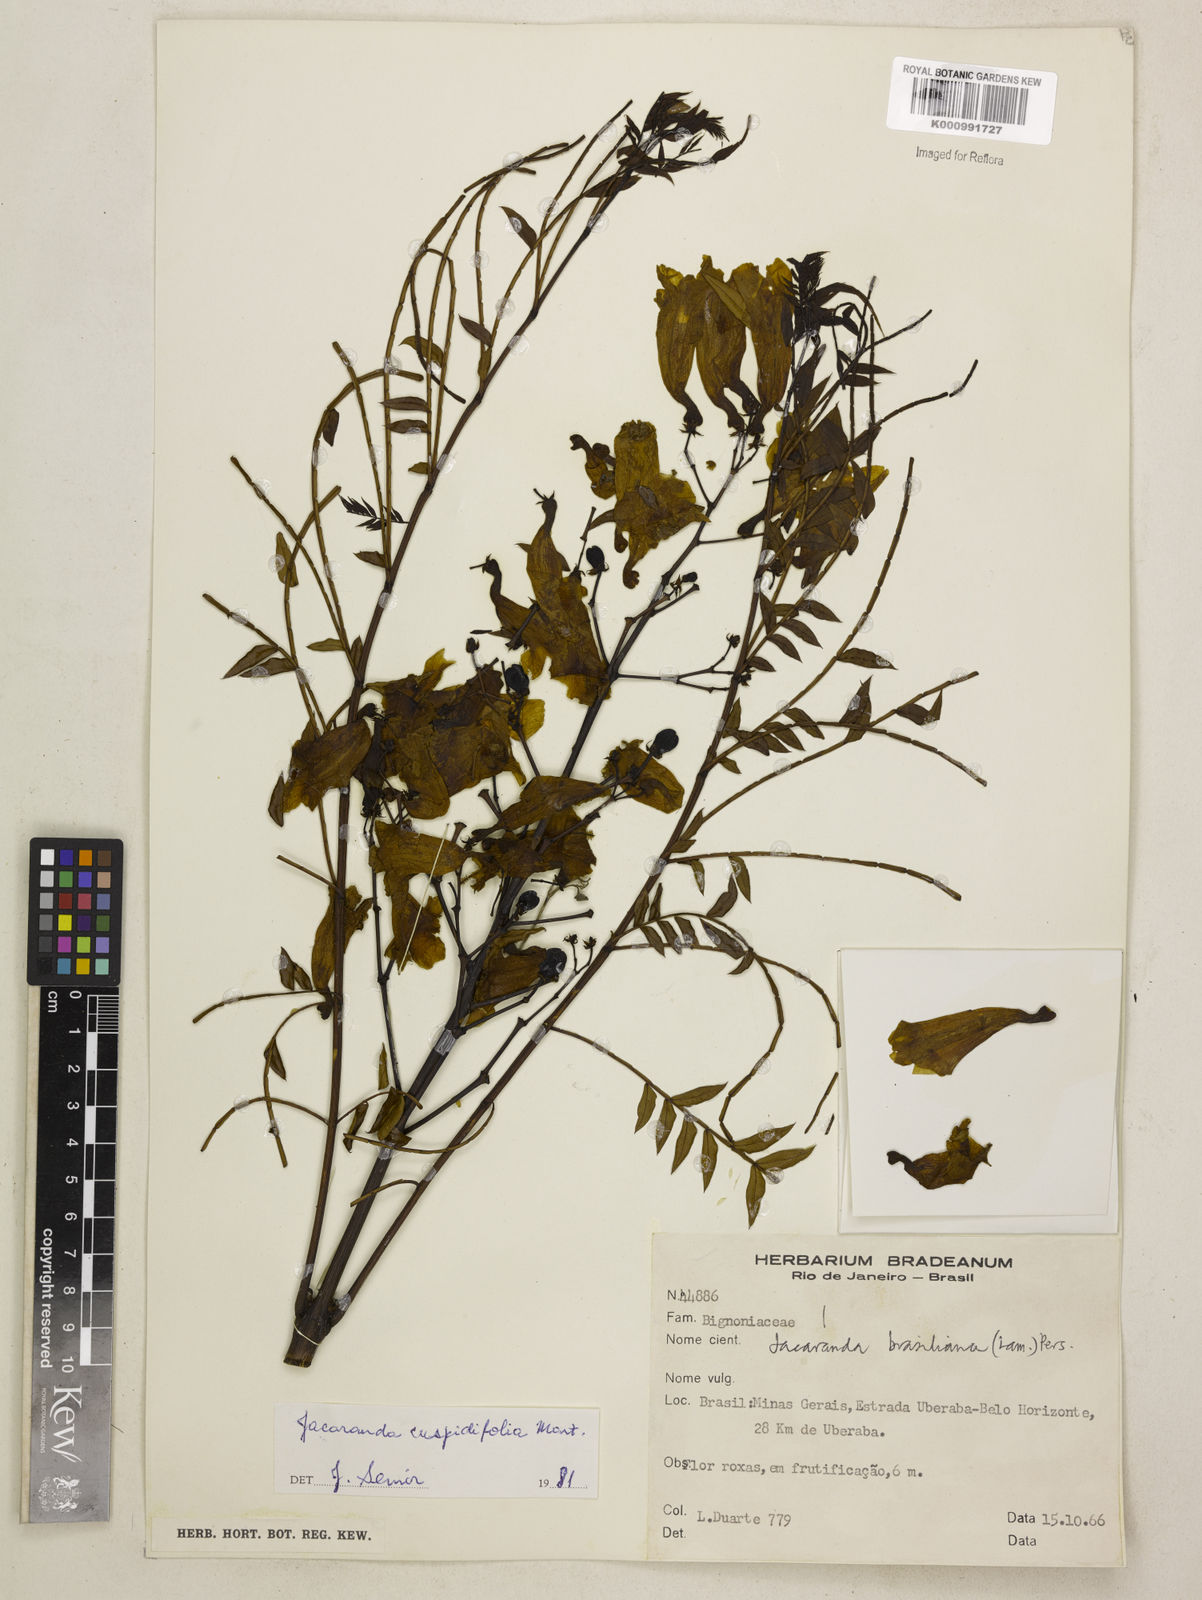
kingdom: Plantae
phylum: Tracheophyta
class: Magnoliopsida
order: Lamiales
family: Bignoniaceae
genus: Jacaranda
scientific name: Jacaranda cuspidifolia
